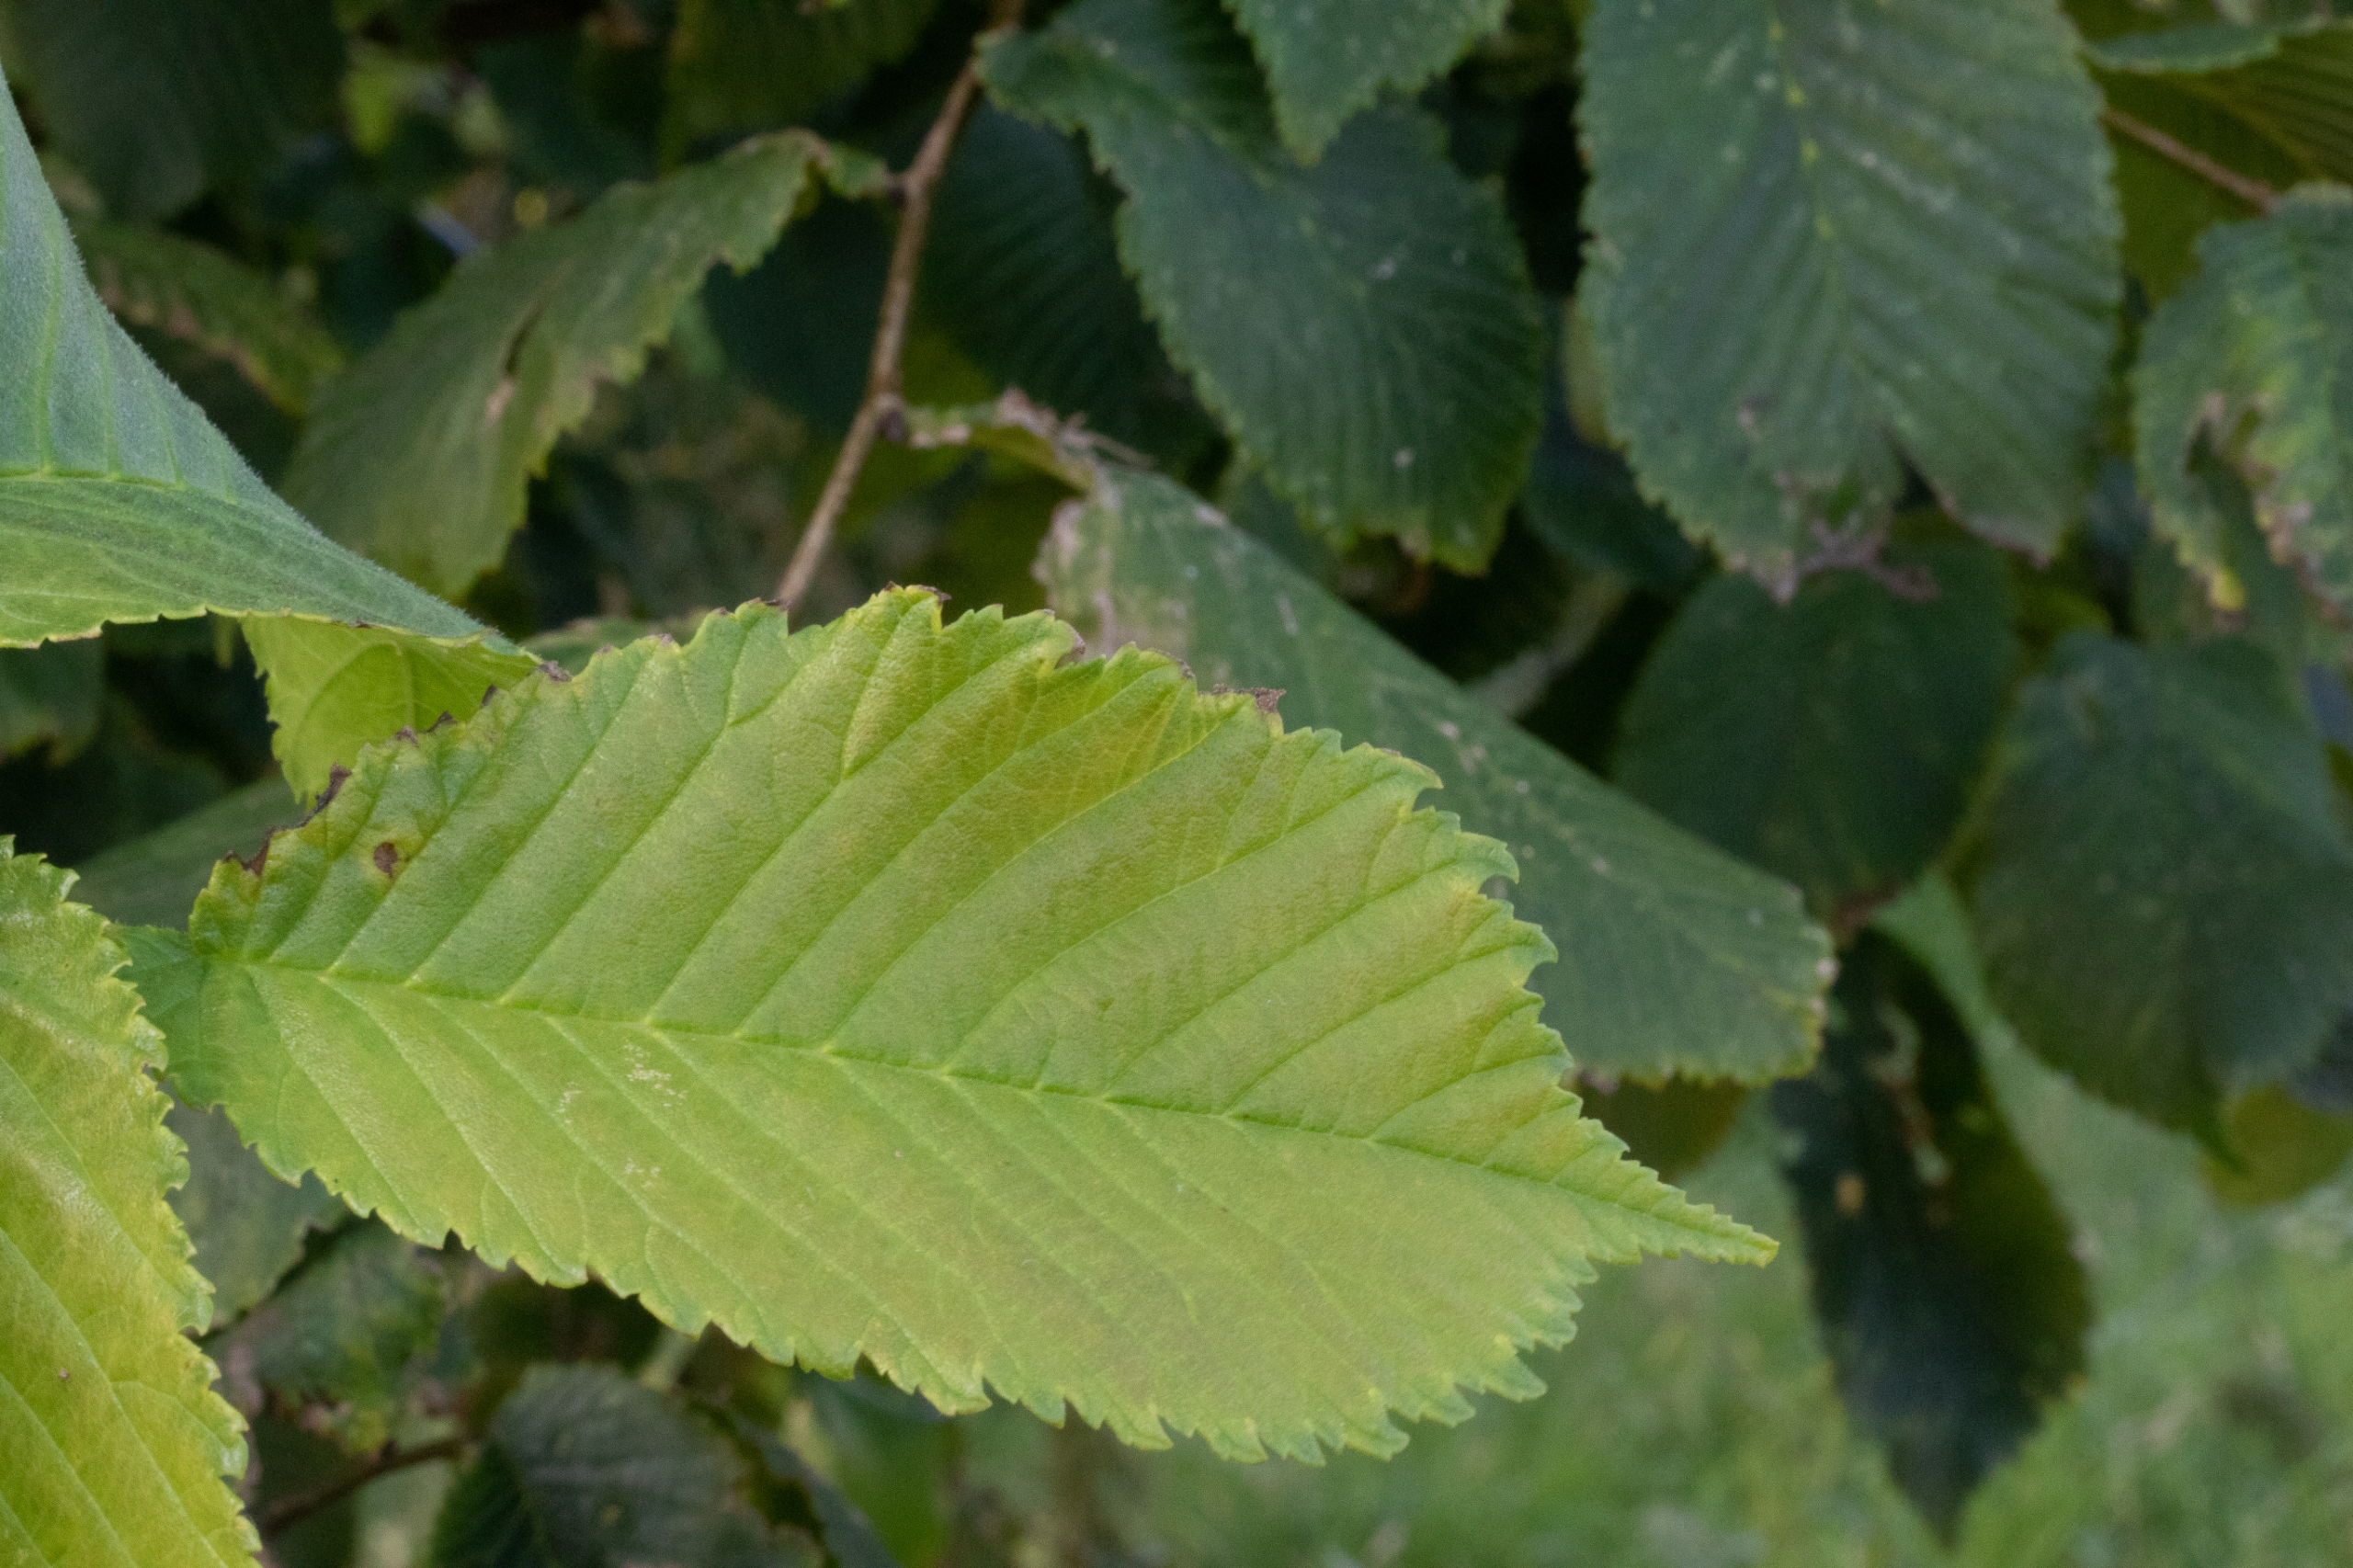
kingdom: Plantae
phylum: Tracheophyta
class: Magnoliopsida
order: Rosales
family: Ulmaceae
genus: Ulmus
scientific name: Ulmus glabra
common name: Skov-elm/storbladet elm
